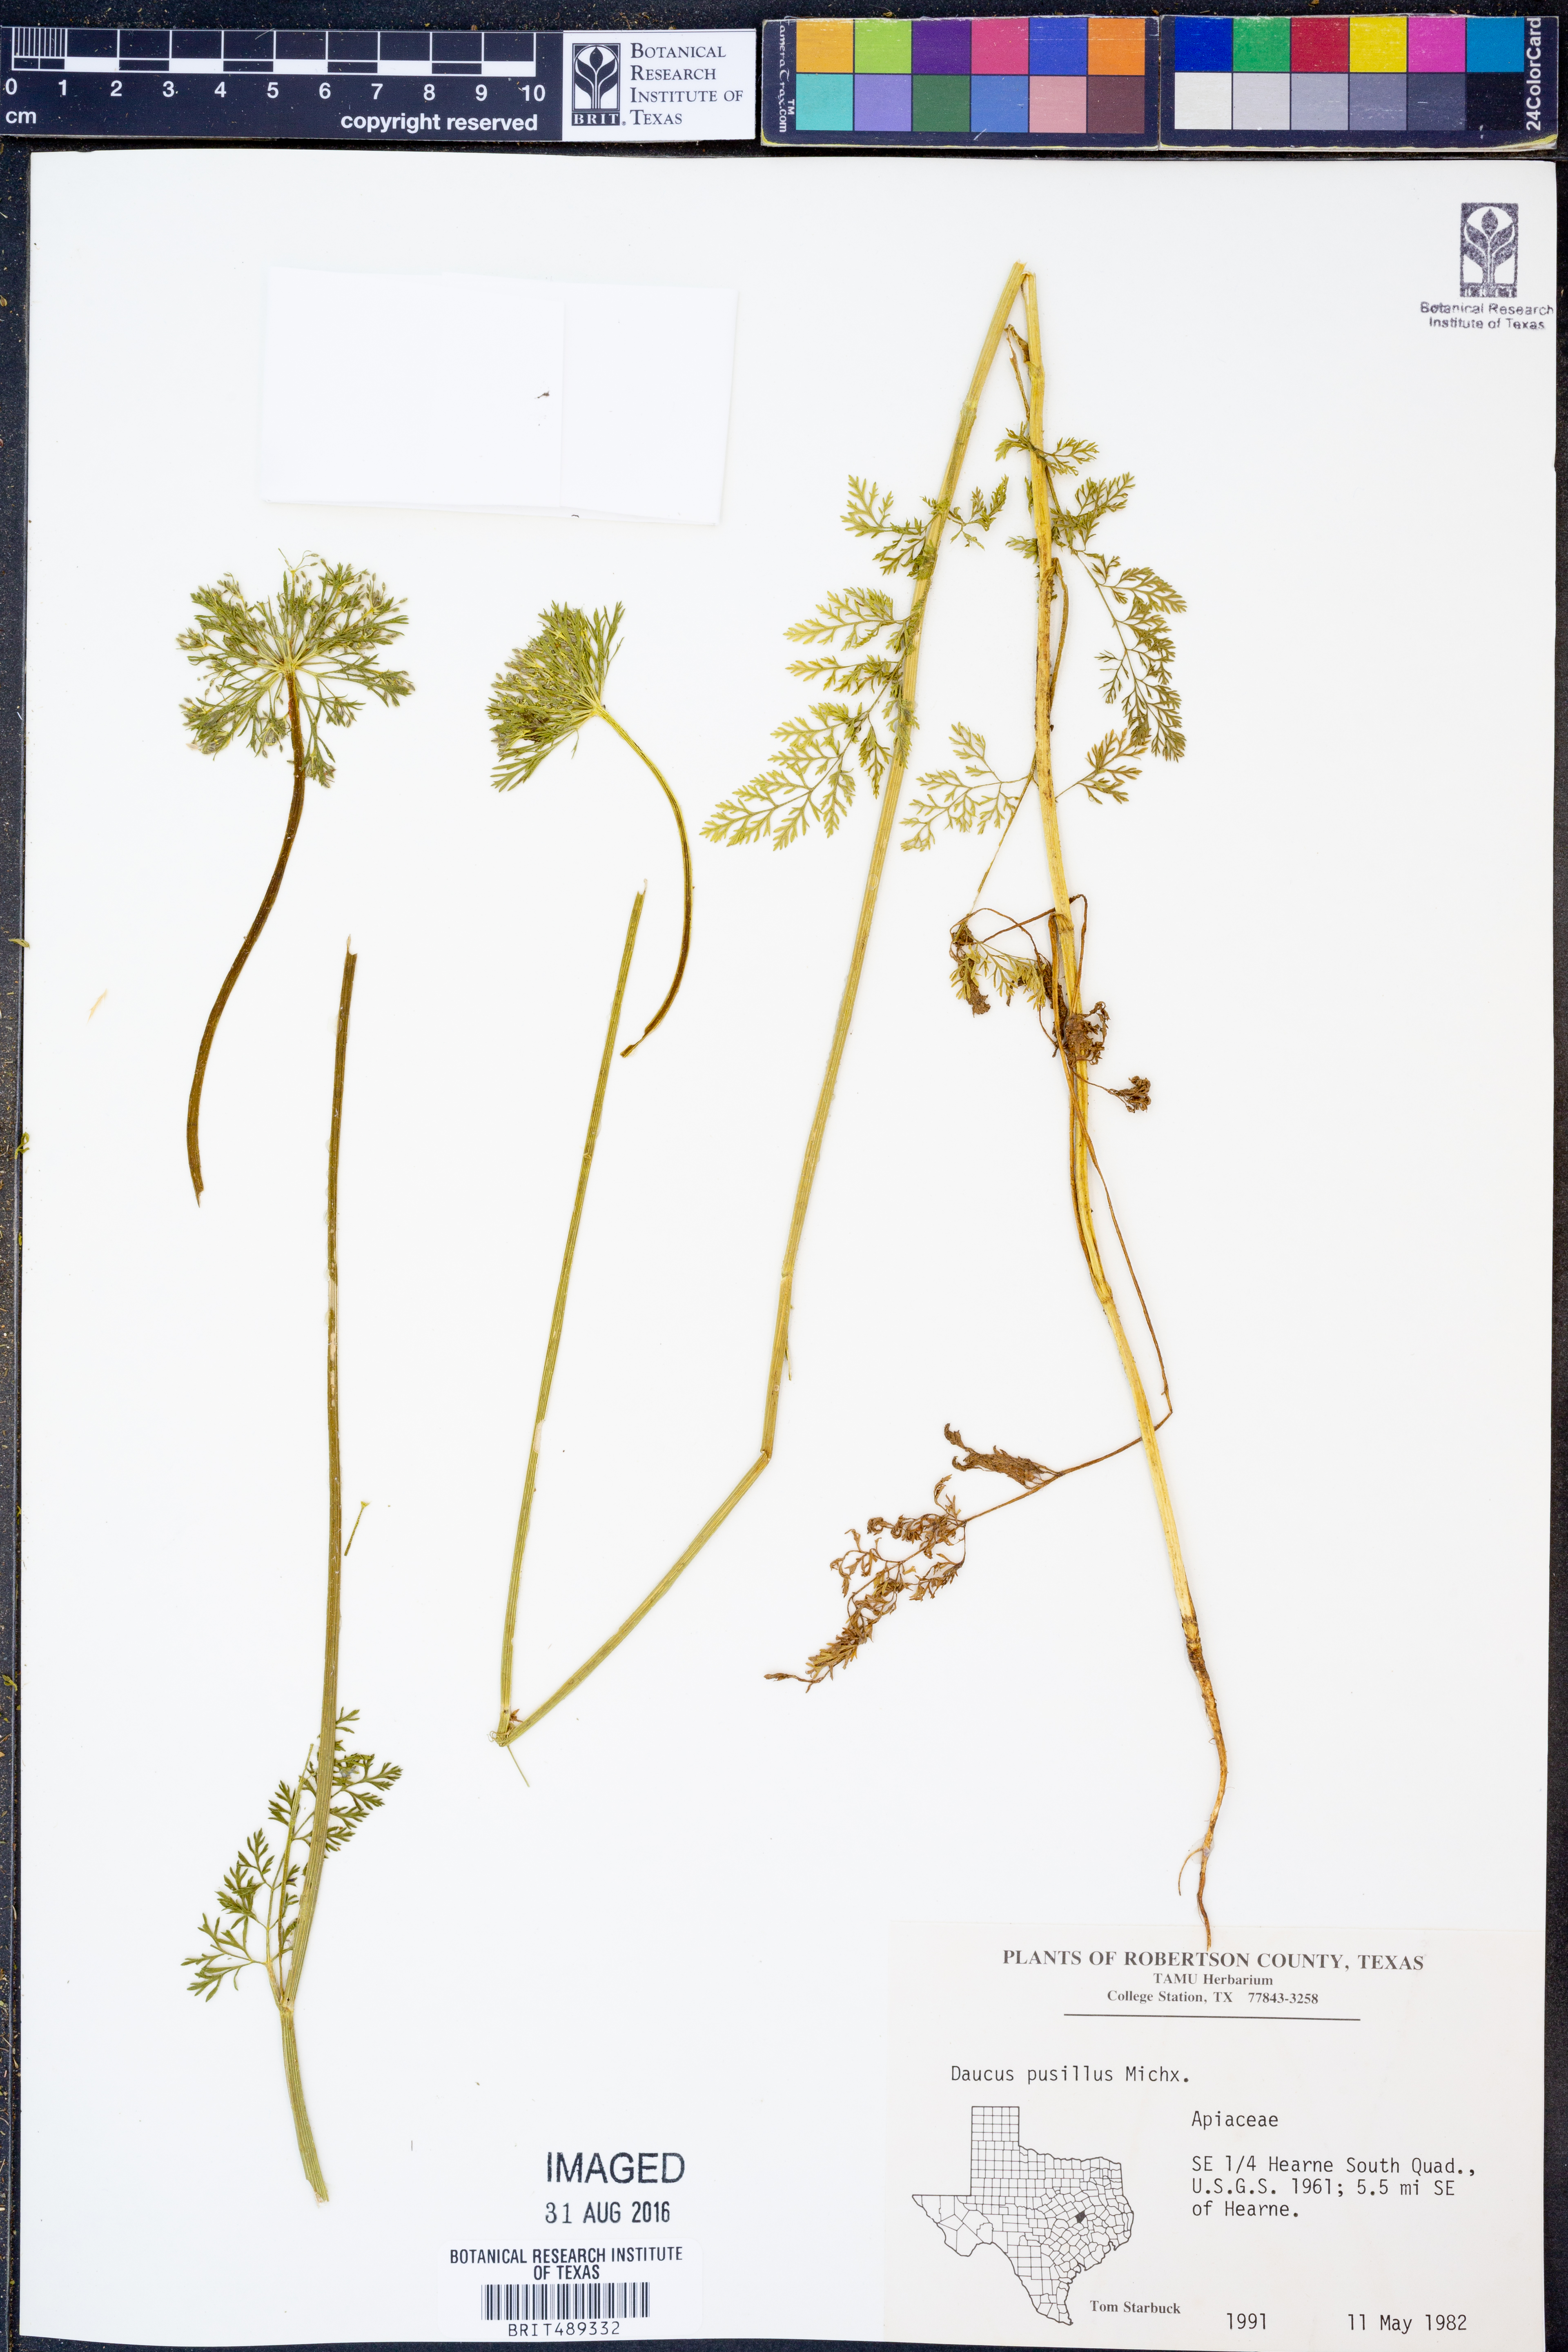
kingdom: Plantae
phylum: Tracheophyta
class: Magnoliopsida
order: Apiales
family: Apiaceae
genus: Daucus
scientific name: Daucus pusillus
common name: Southwest wild carrot
